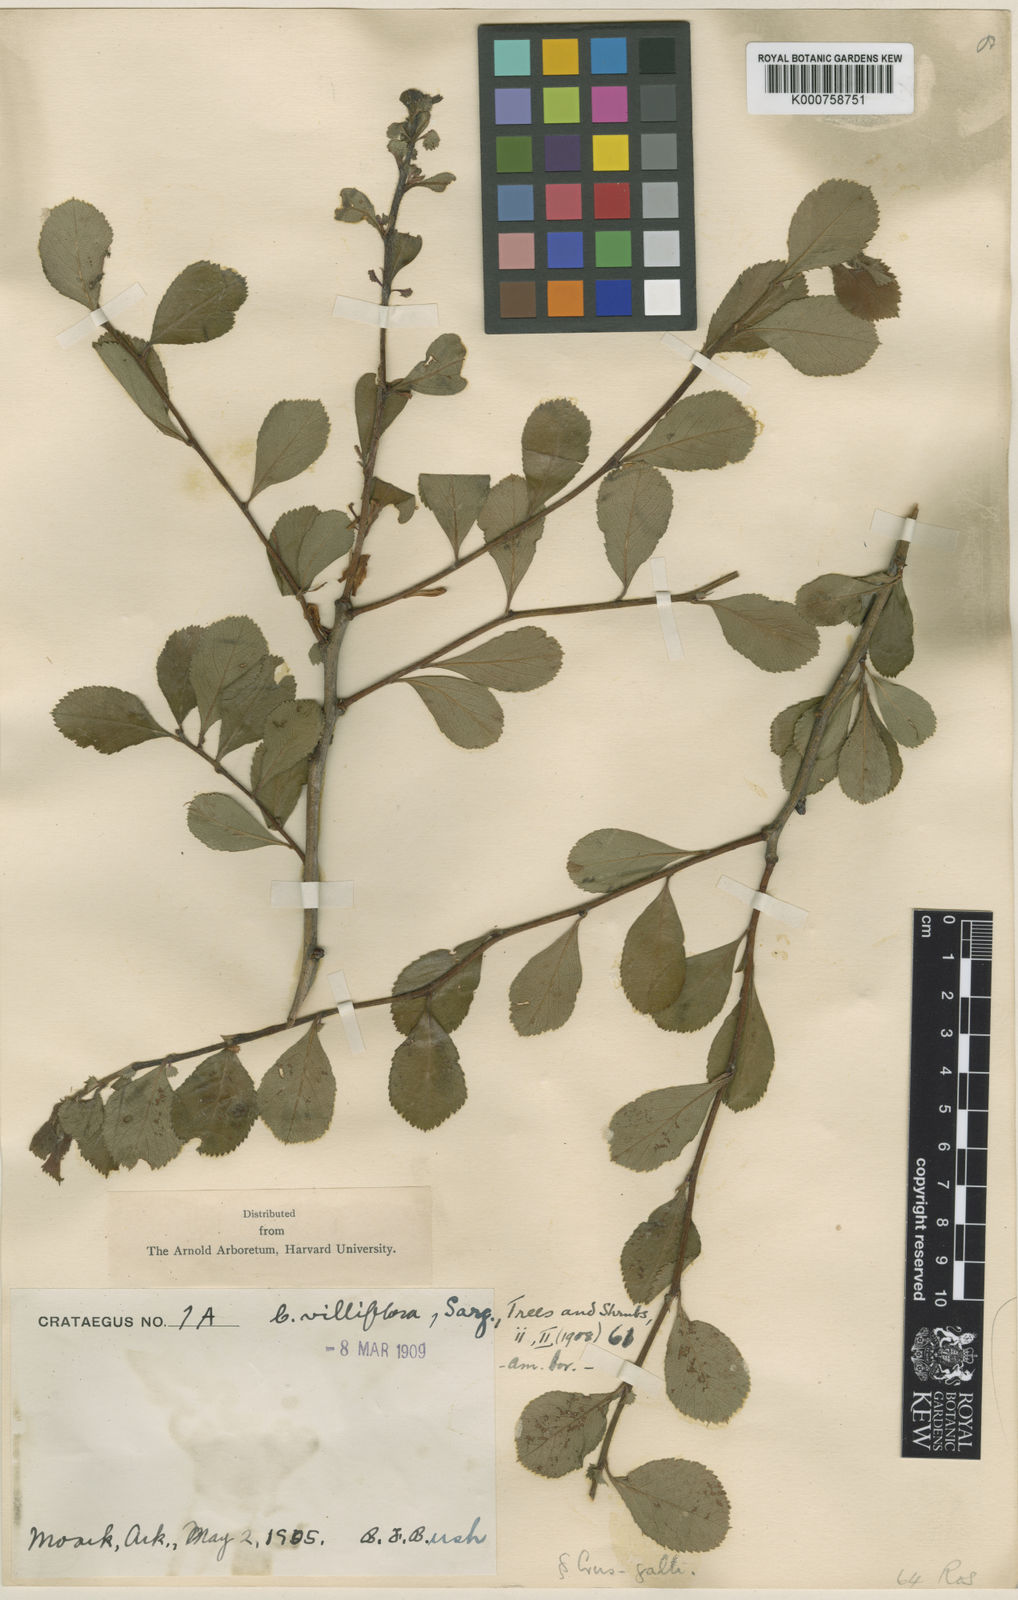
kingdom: Plantae
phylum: Tracheophyta
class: Magnoliopsida
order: Rosales
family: Rosaceae
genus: Crataegus
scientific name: Crataegus villiflora
